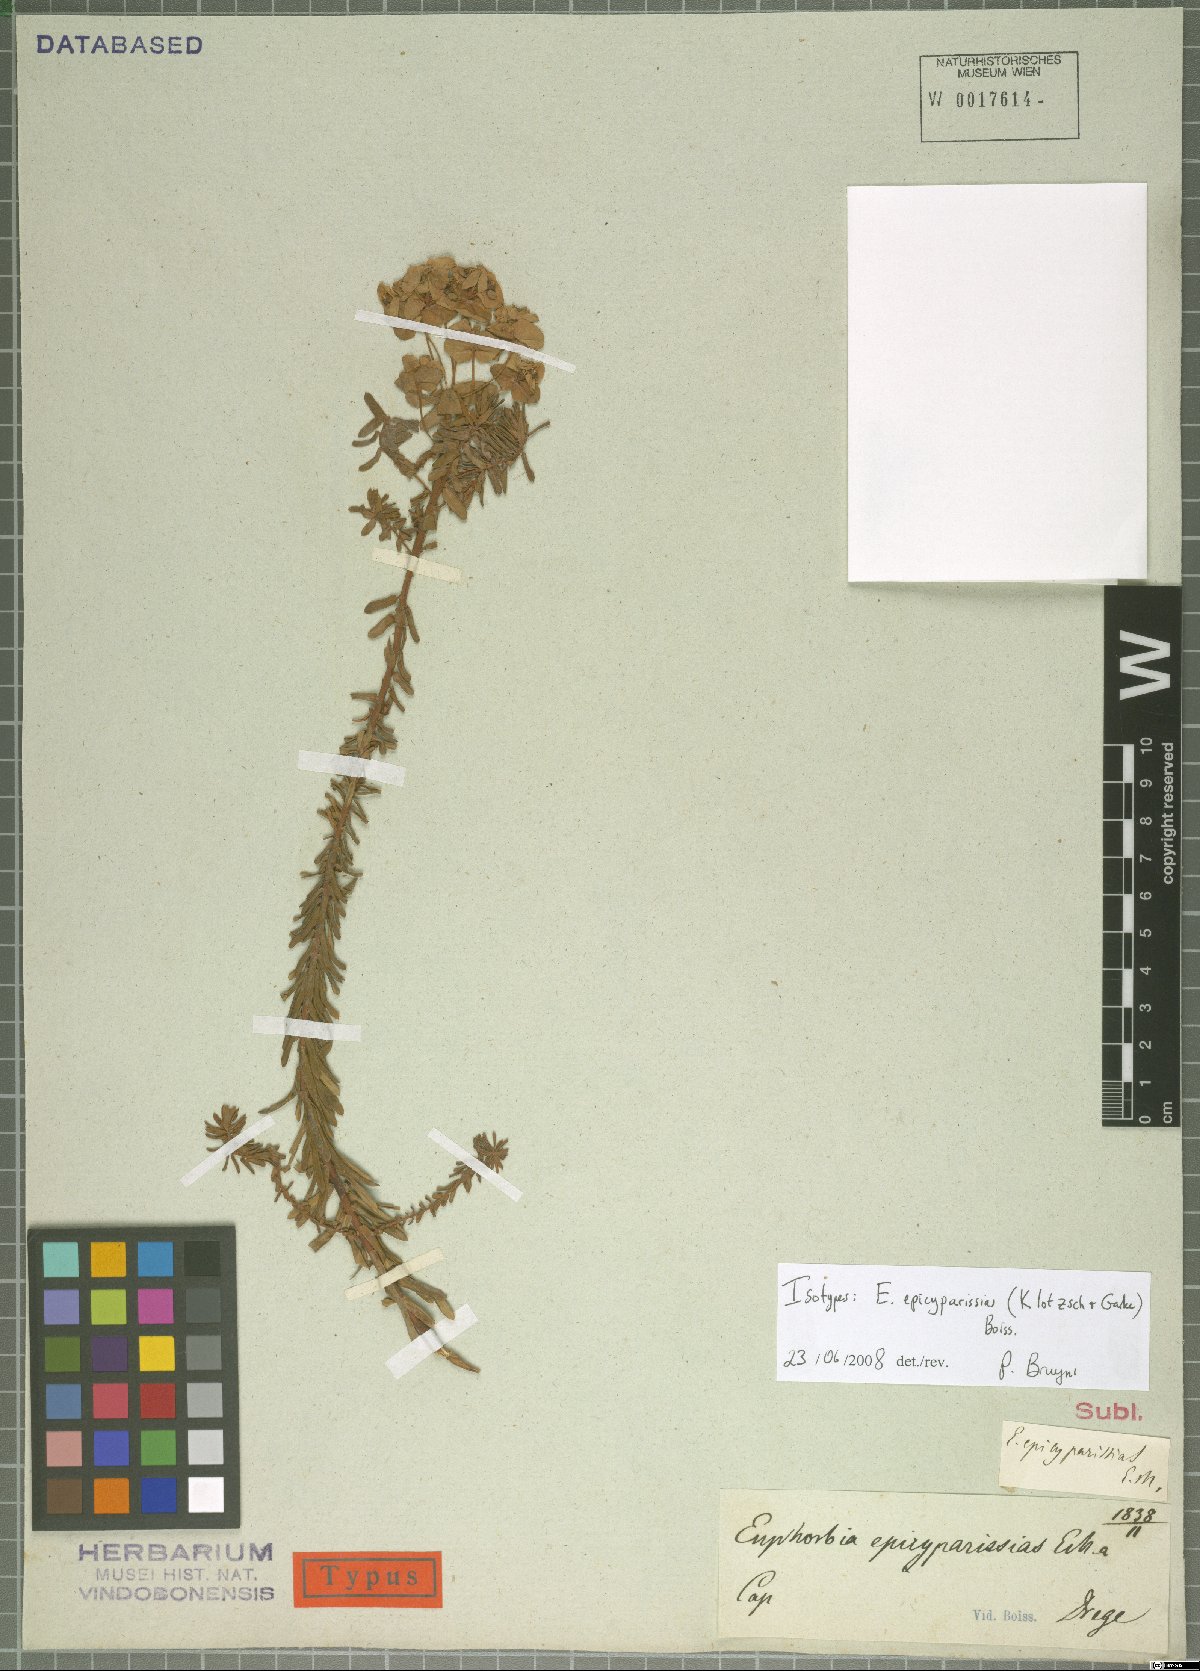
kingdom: Plantae
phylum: Tracheophyta
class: Magnoliopsida
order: Malpighiales
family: Euphorbiaceae
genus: Euphorbia
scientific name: Euphorbia natalensis
